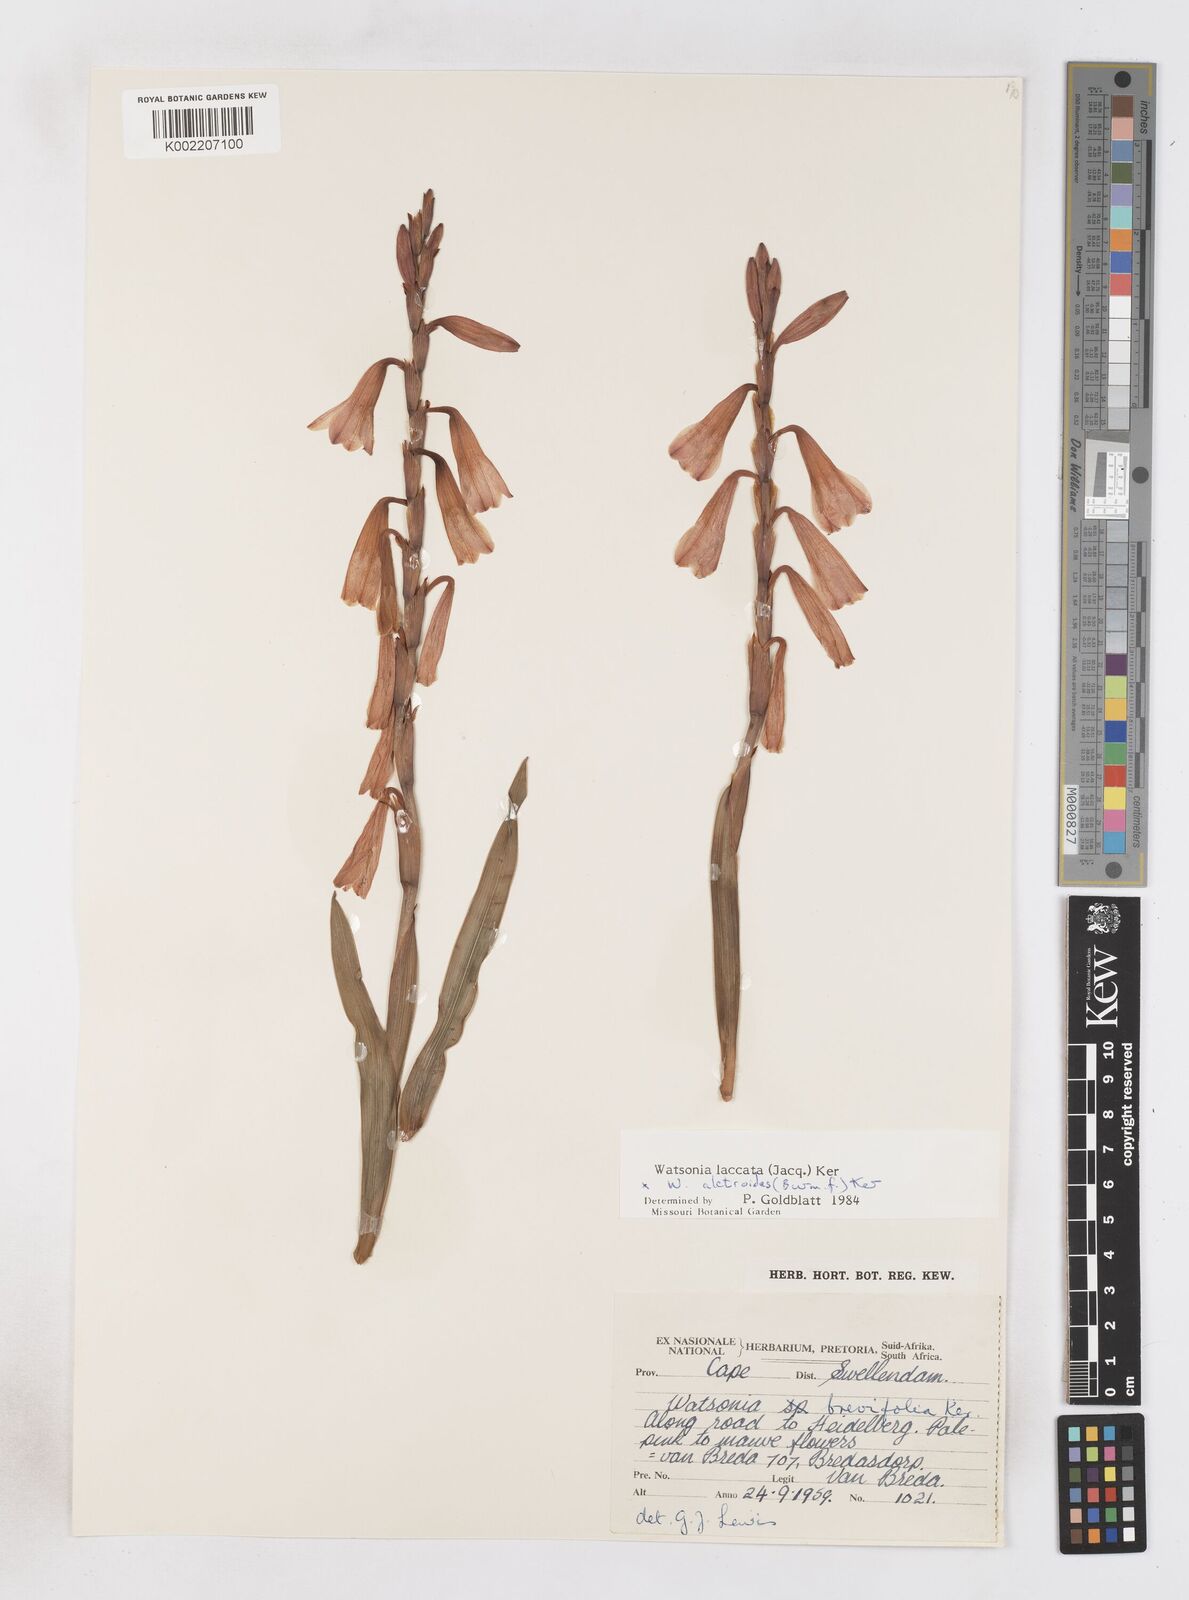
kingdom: Plantae
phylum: Tracheophyta
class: Liliopsida
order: Asparagales
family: Iridaceae
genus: Watsonia
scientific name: Watsonia laccata
